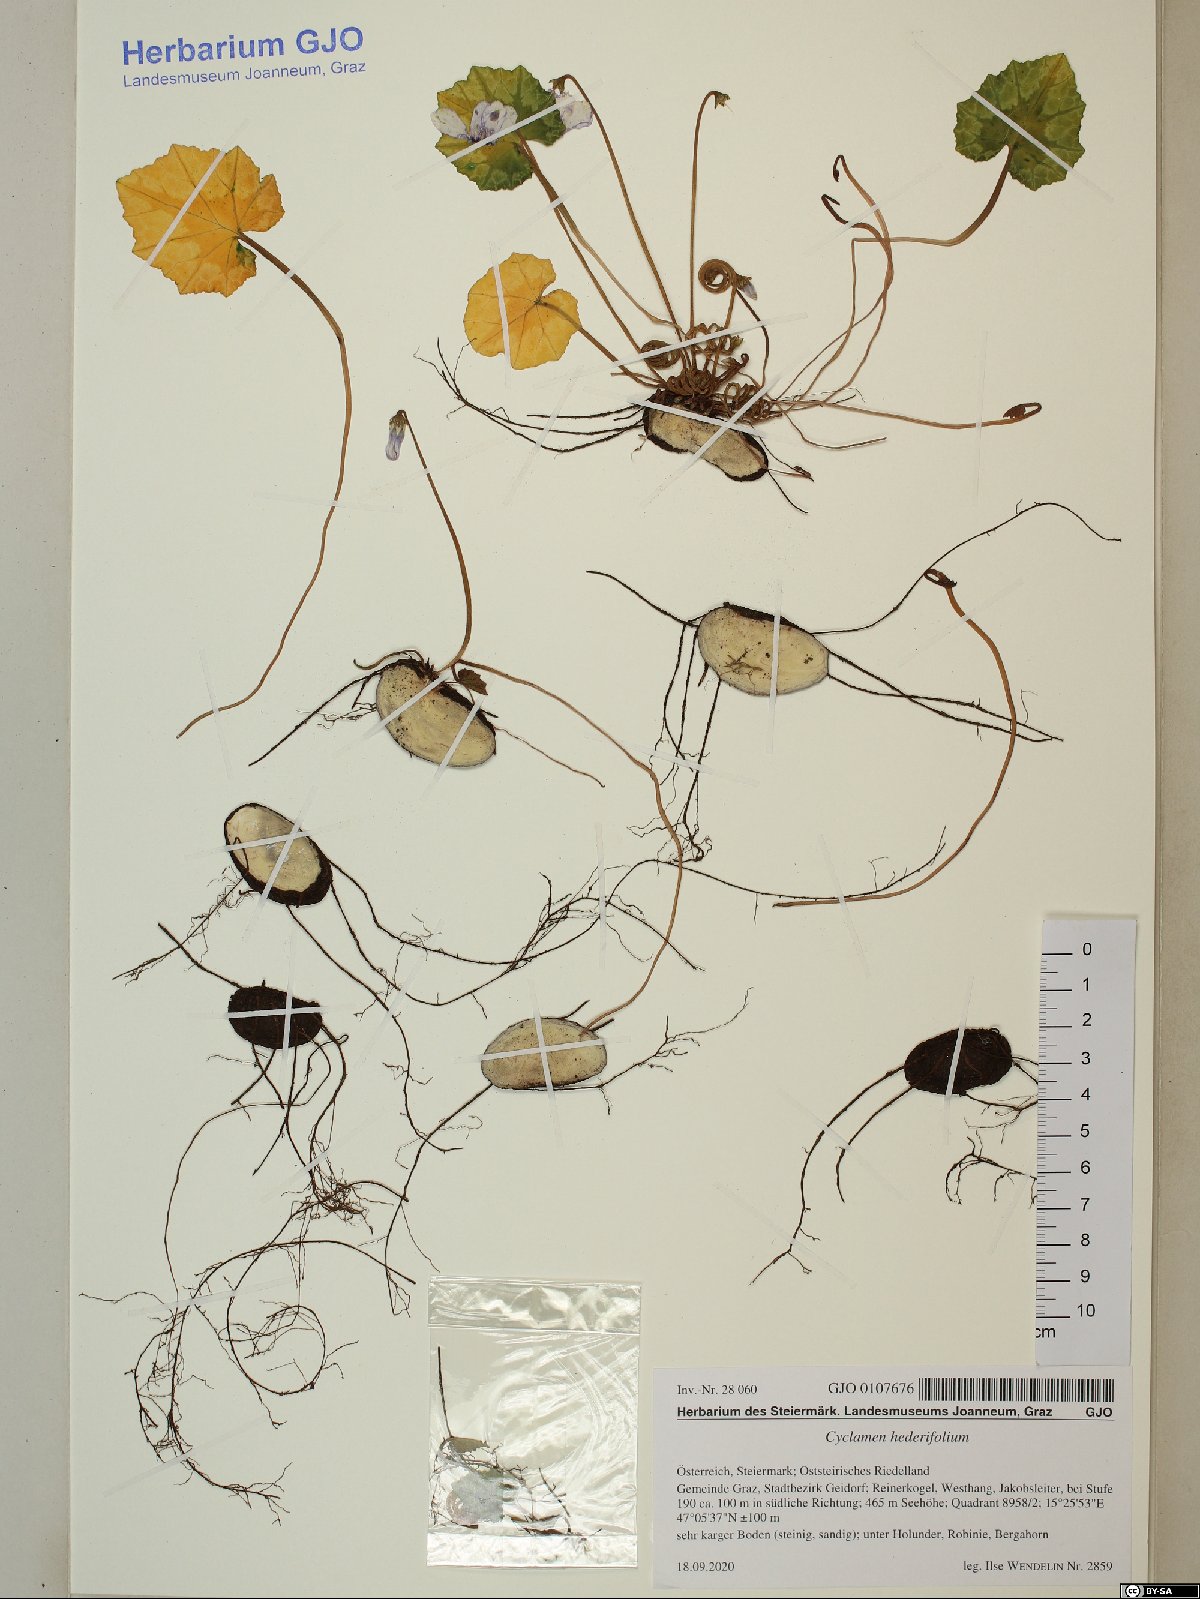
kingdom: Plantae
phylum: Tracheophyta
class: Magnoliopsida
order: Ericales
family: Primulaceae
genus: Cyclamen
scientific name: Cyclamen hederifolium
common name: Sowbread
